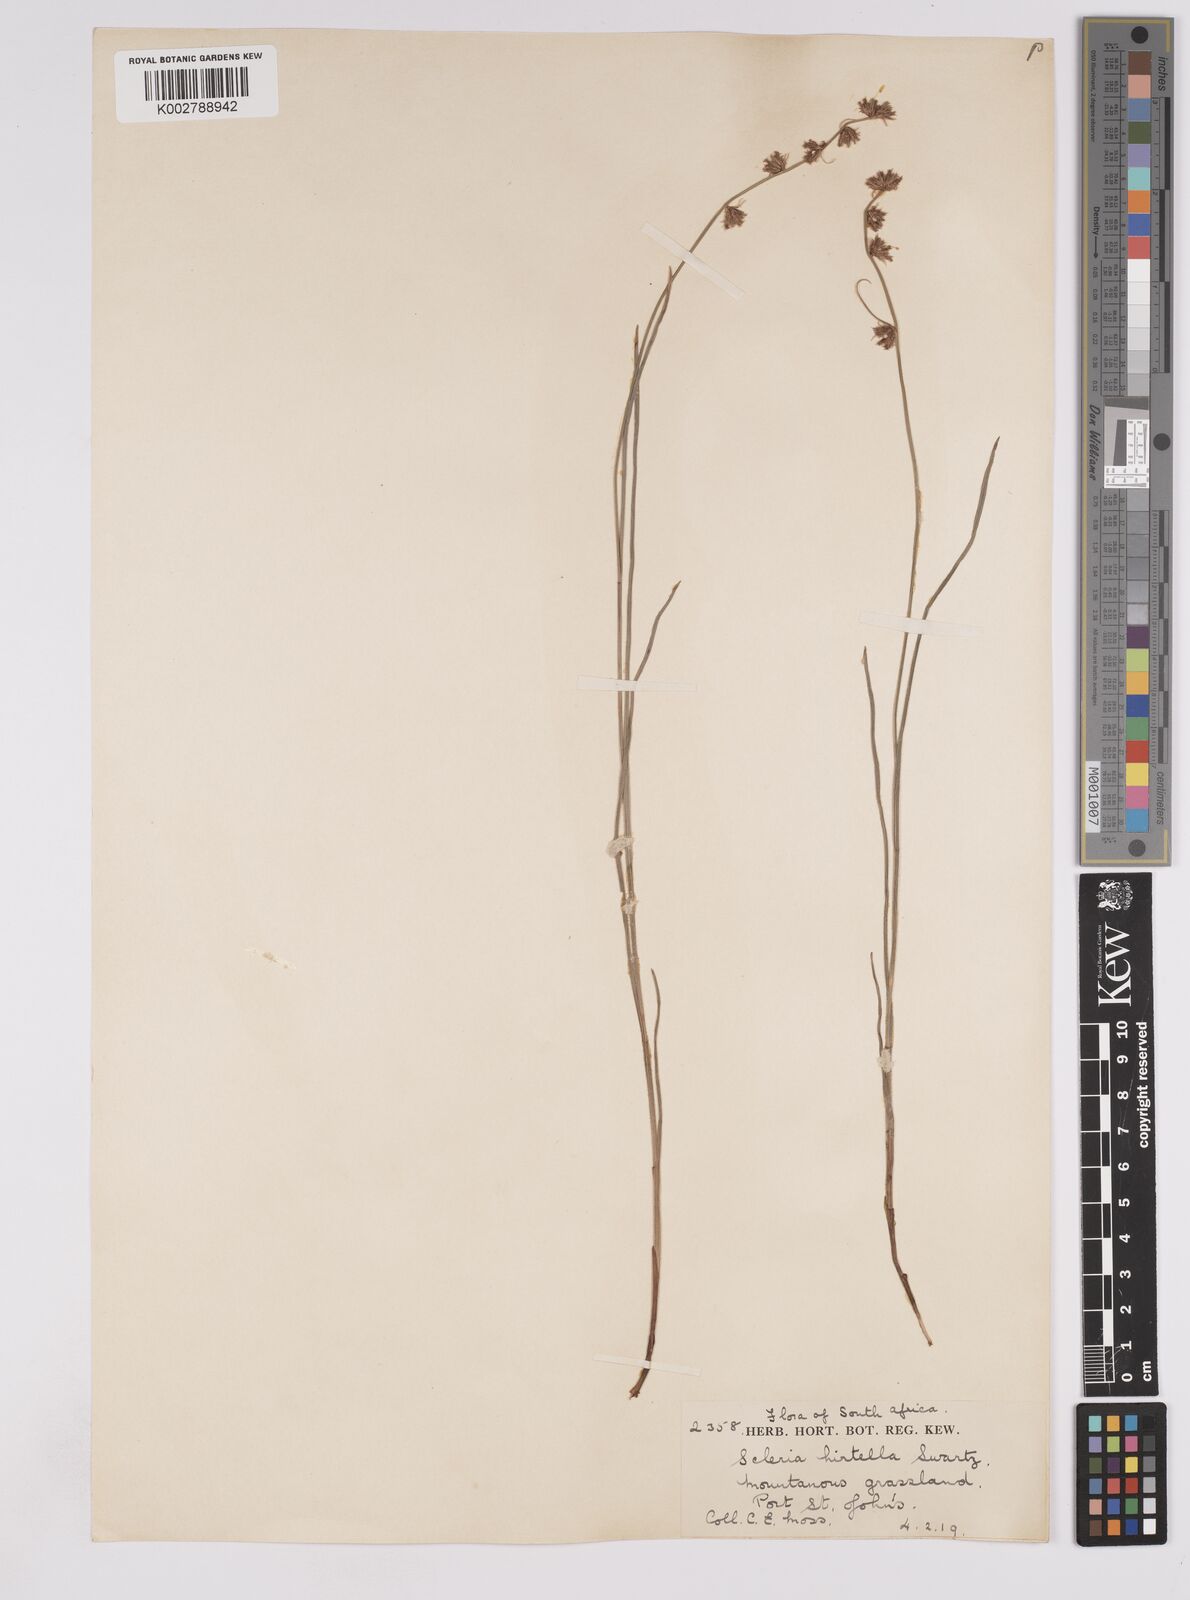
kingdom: Plantae
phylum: Tracheophyta
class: Liliopsida
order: Poales
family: Cyperaceae
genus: Scleria
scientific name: Scleria hirtella
